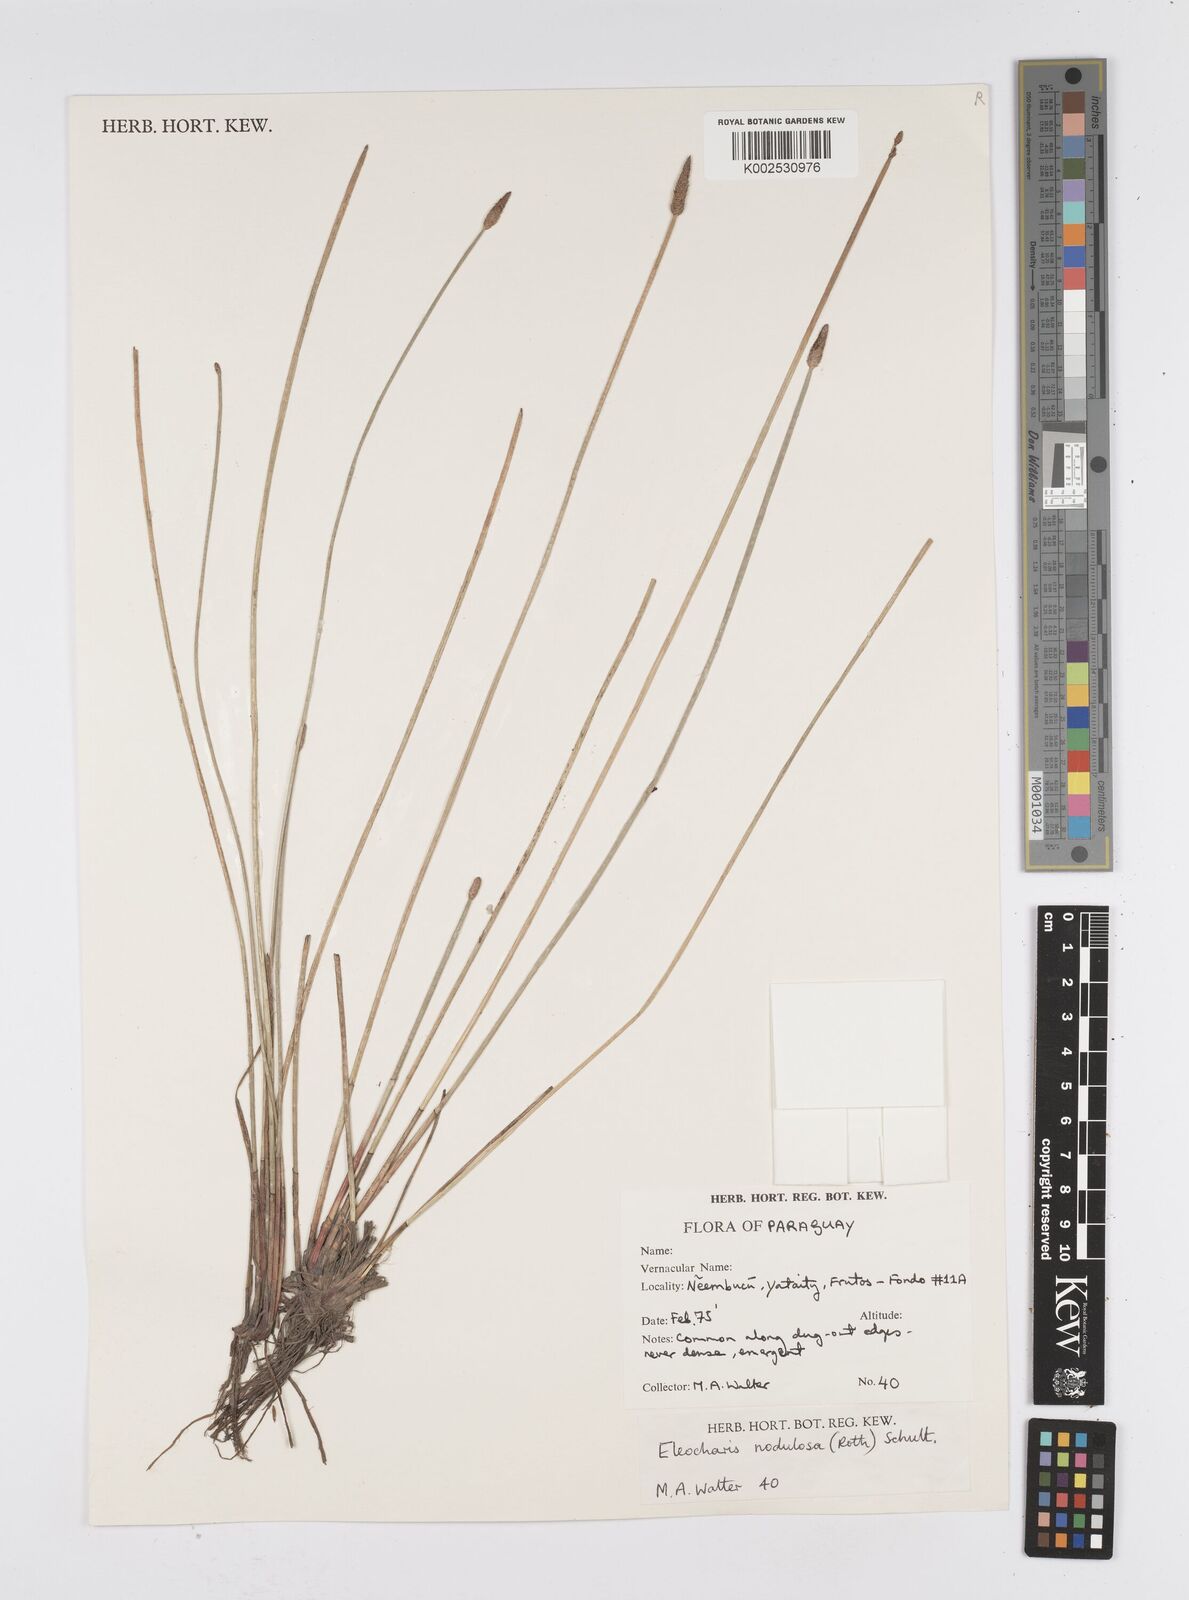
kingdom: Plantae
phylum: Tracheophyta
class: Liliopsida
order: Poales
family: Cyperaceae
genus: Eleocharis
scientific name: Eleocharis montana
